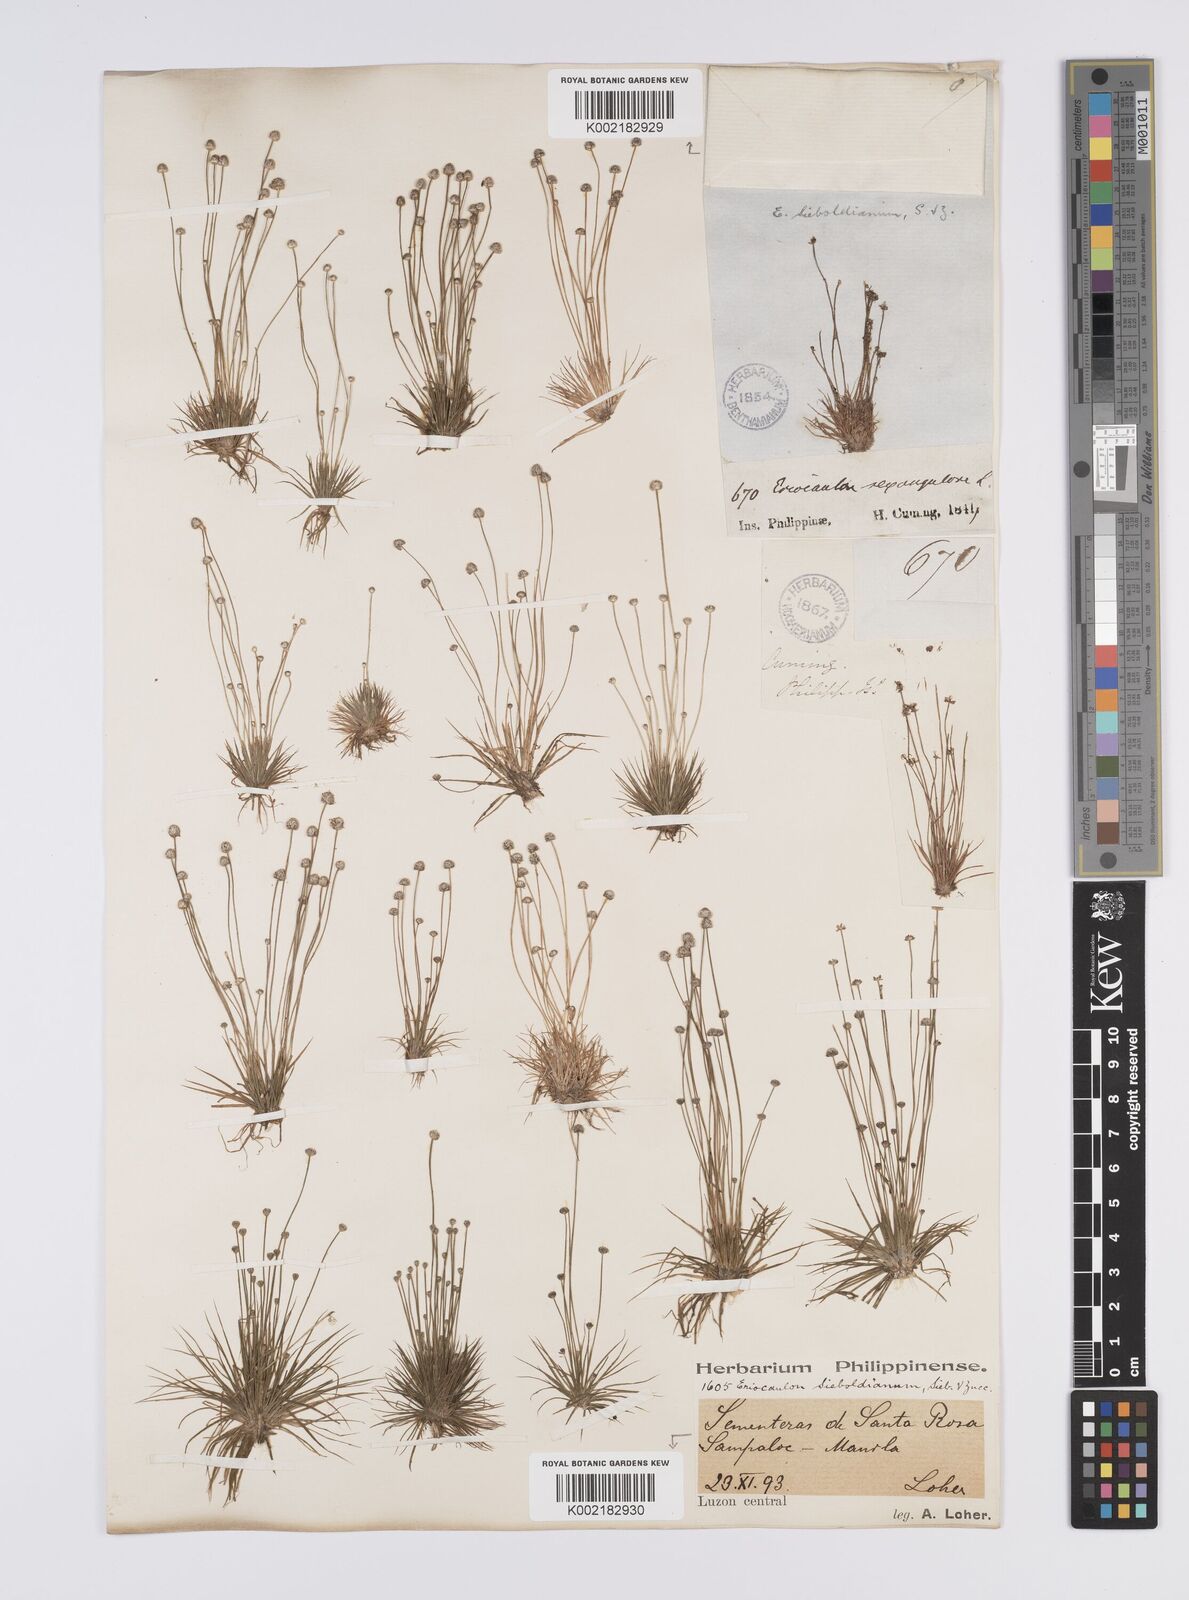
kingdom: Plantae
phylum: Tracheophyta
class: Liliopsida
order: Poales
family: Eriocaulaceae
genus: Eriocaulon
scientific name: Eriocaulon cinereum
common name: Ashy pipewort
